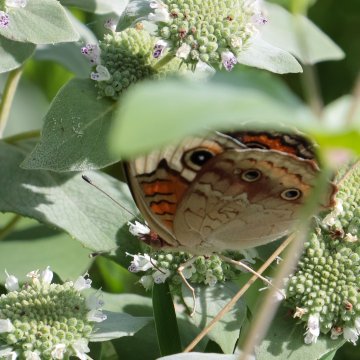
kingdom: Animalia
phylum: Arthropoda
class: Insecta
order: Lepidoptera
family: Nymphalidae
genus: Junonia
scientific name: Junonia coenia
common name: Common Buckeye
